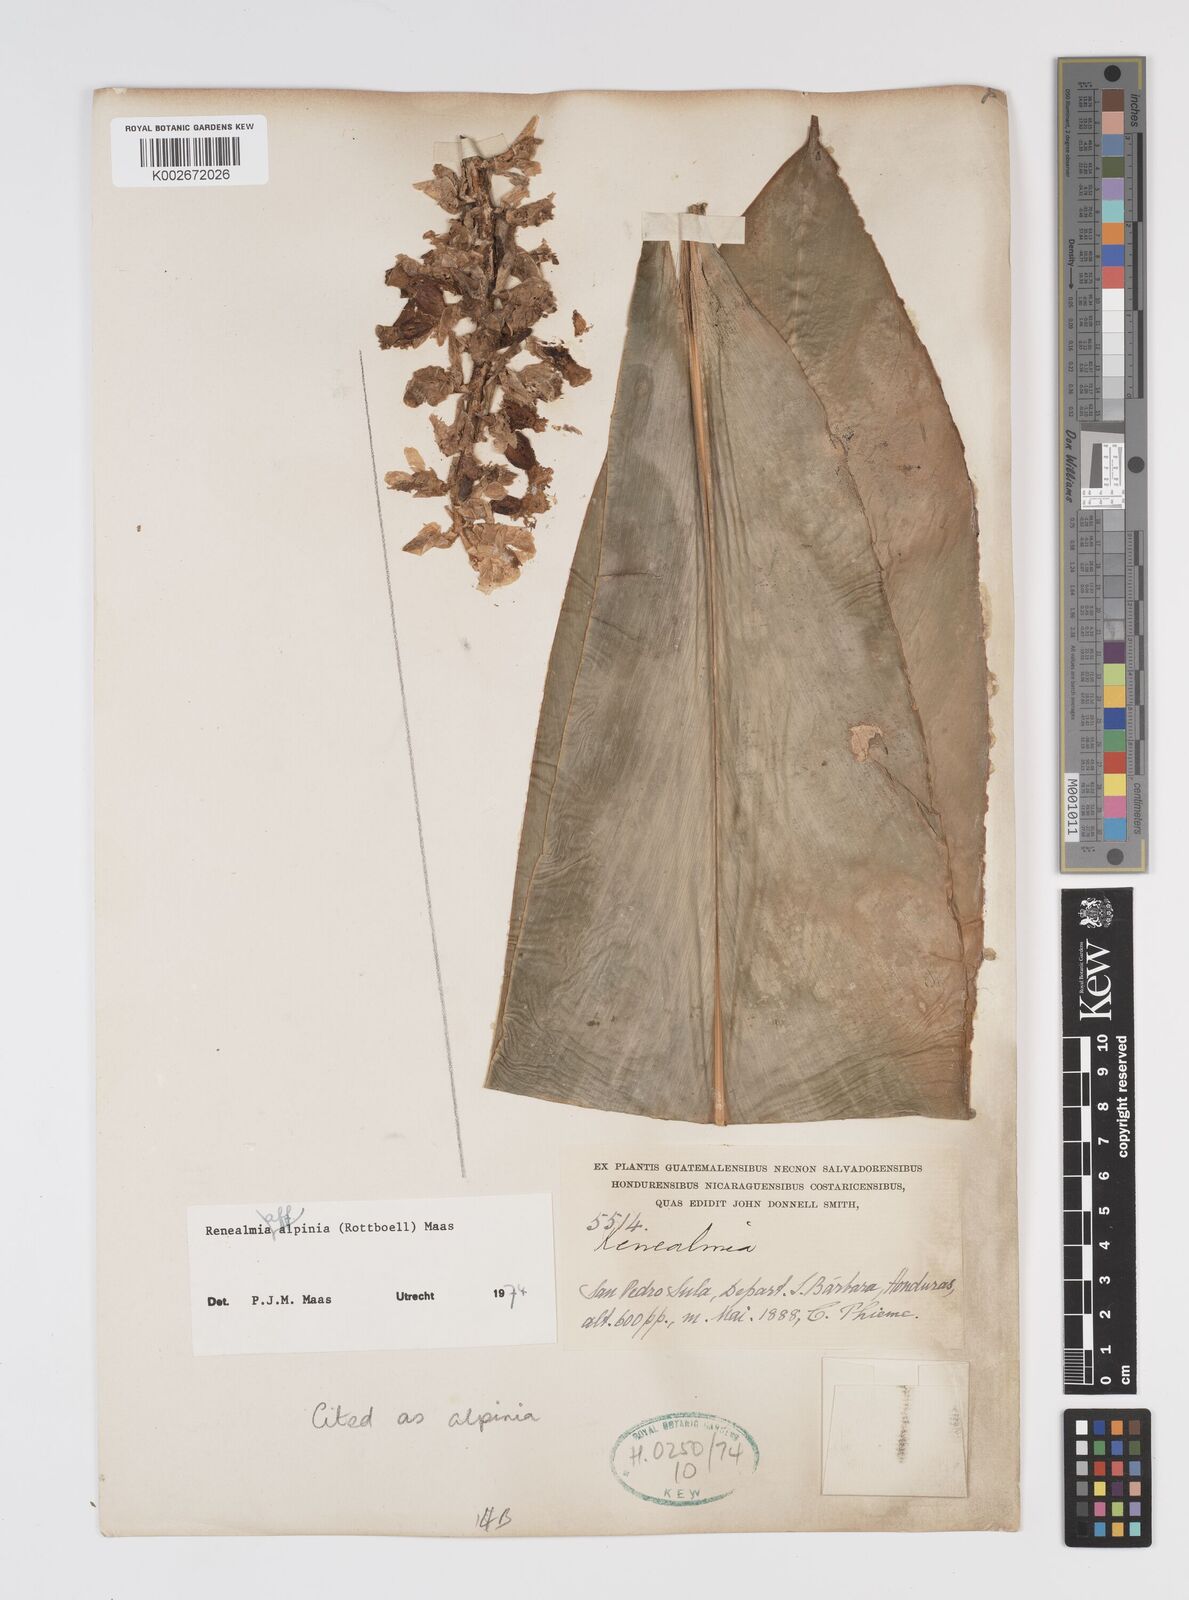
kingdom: Plantae
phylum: Tracheophyta
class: Liliopsida
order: Zingiberales
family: Zingiberaceae
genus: Renealmia
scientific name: Renealmia alpinia
